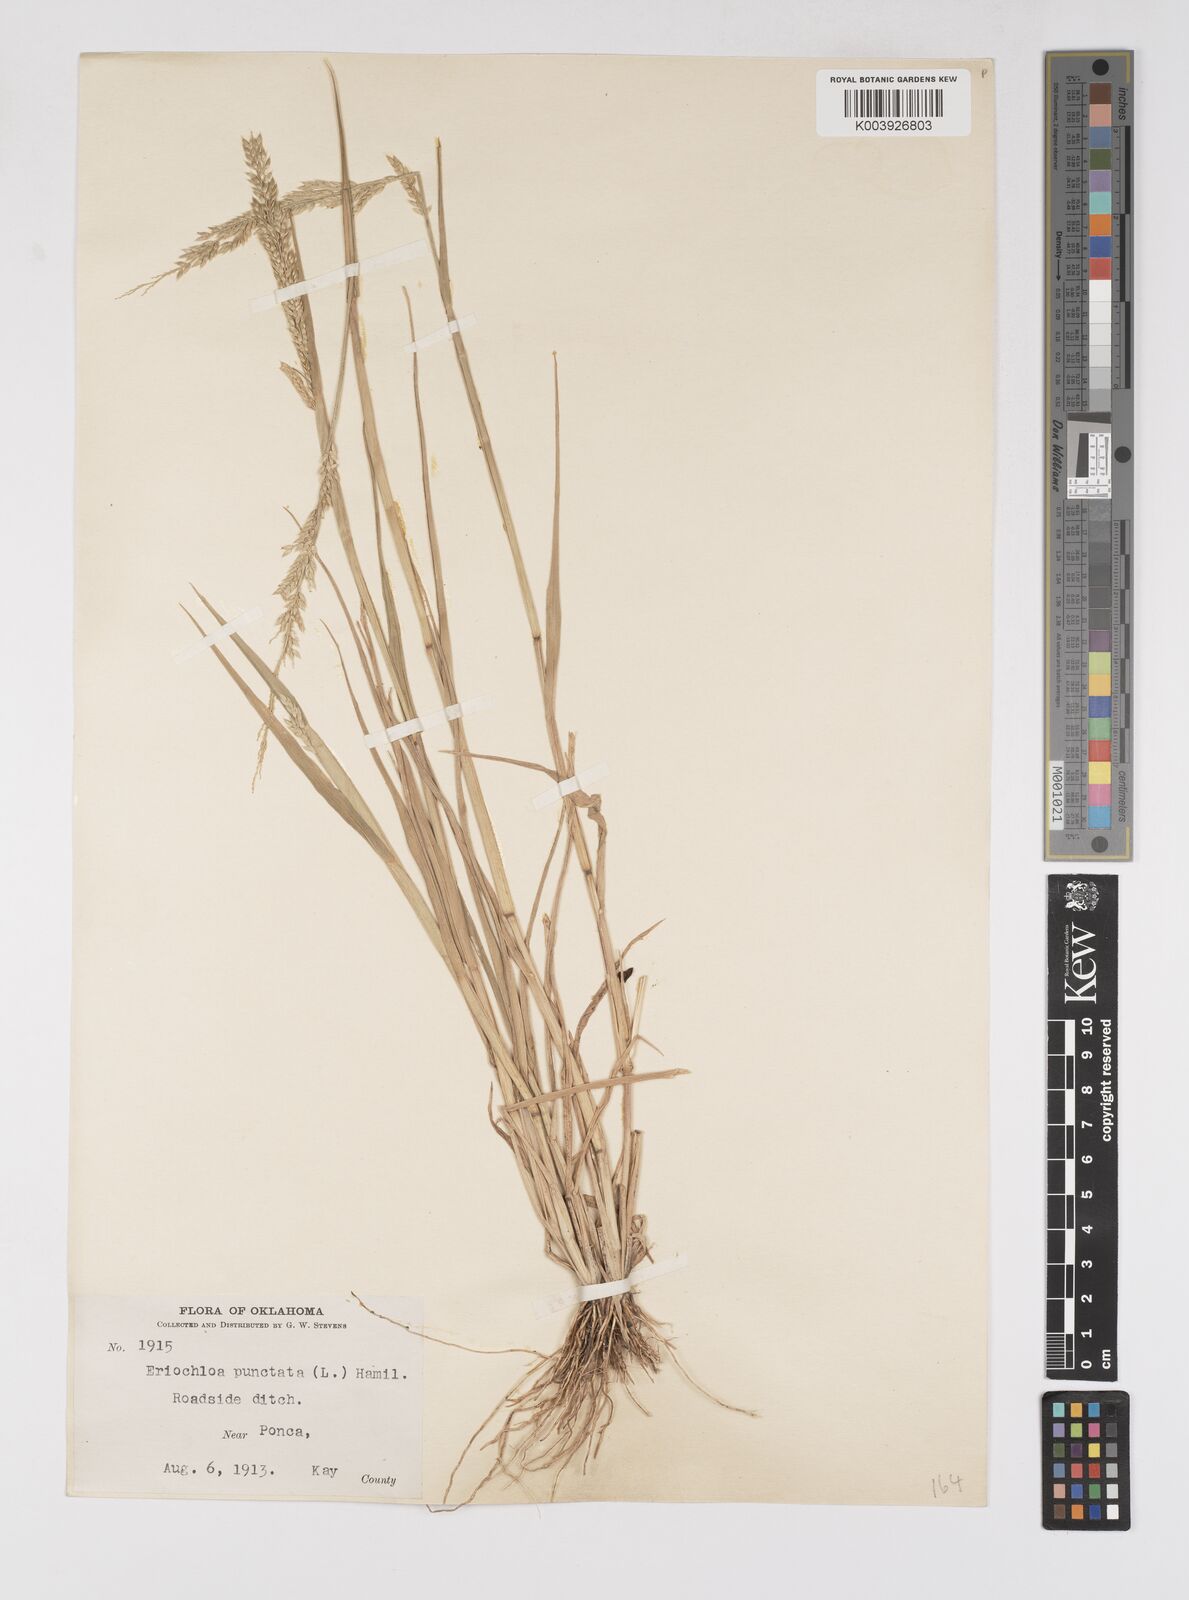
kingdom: Plantae
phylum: Tracheophyta
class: Liliopsida
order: Poales
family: Poaceae
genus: Eriochloa
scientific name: Eriochloa contracta
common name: Prairie cup grass
